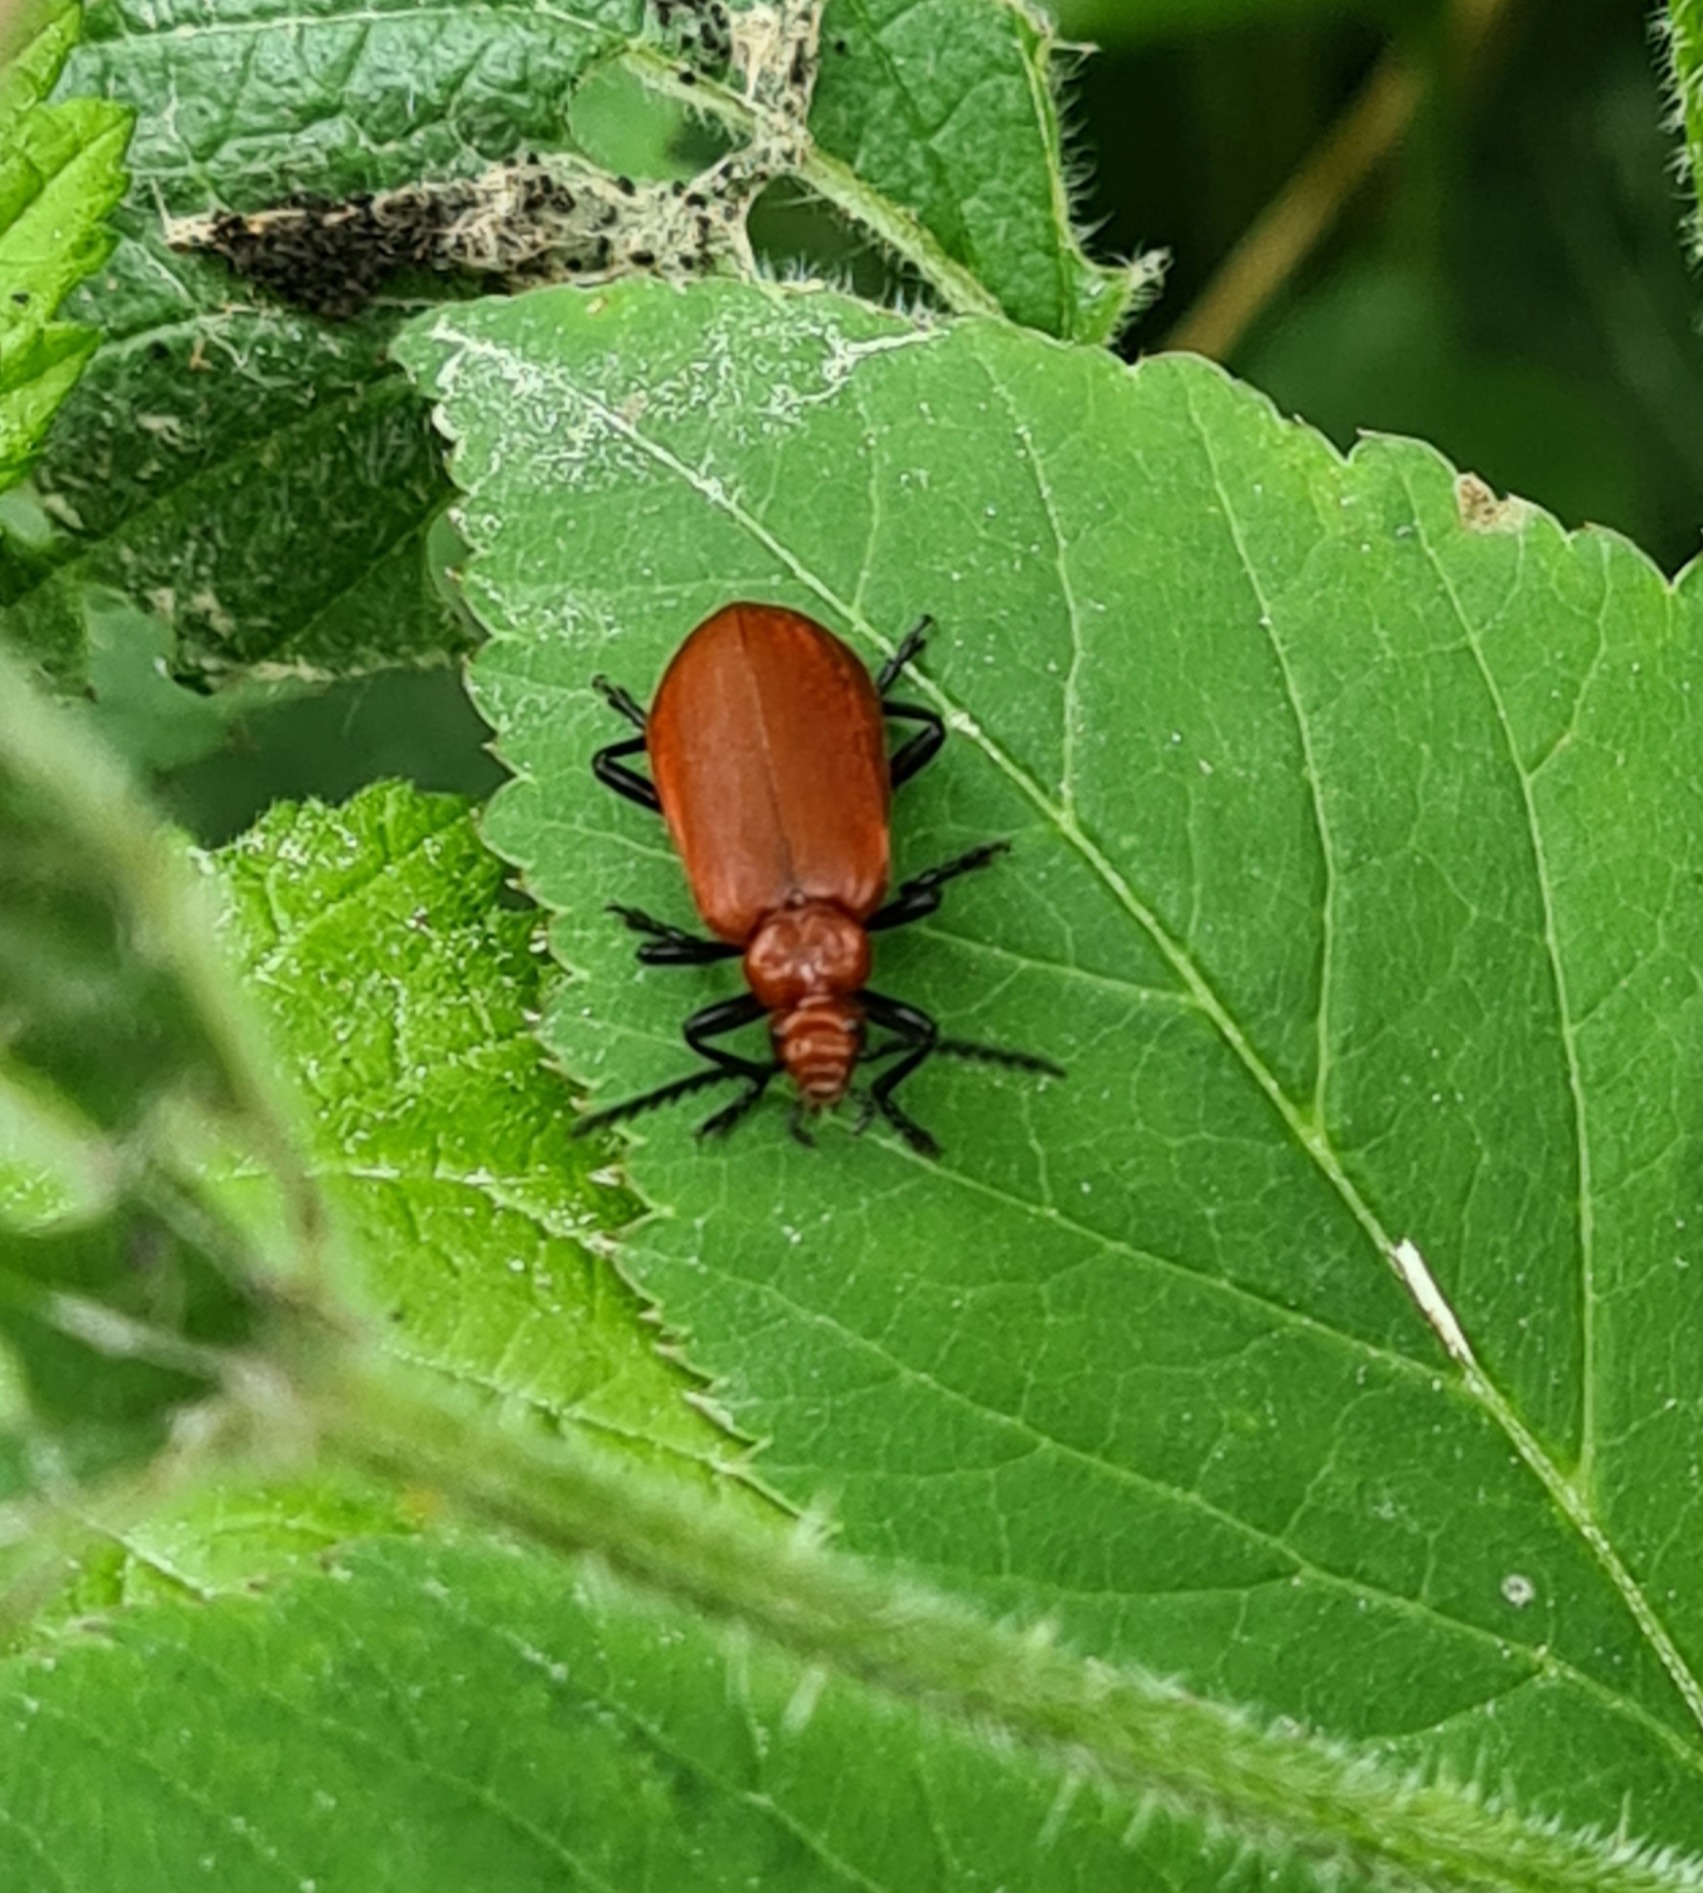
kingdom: Animalia
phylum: Arthropoda
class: Insecta
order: Coleoptera
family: Pyrochroidae
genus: Pyrochroa
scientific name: Pyrochroa serraticornis
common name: Rødhovedet kardinalbille
